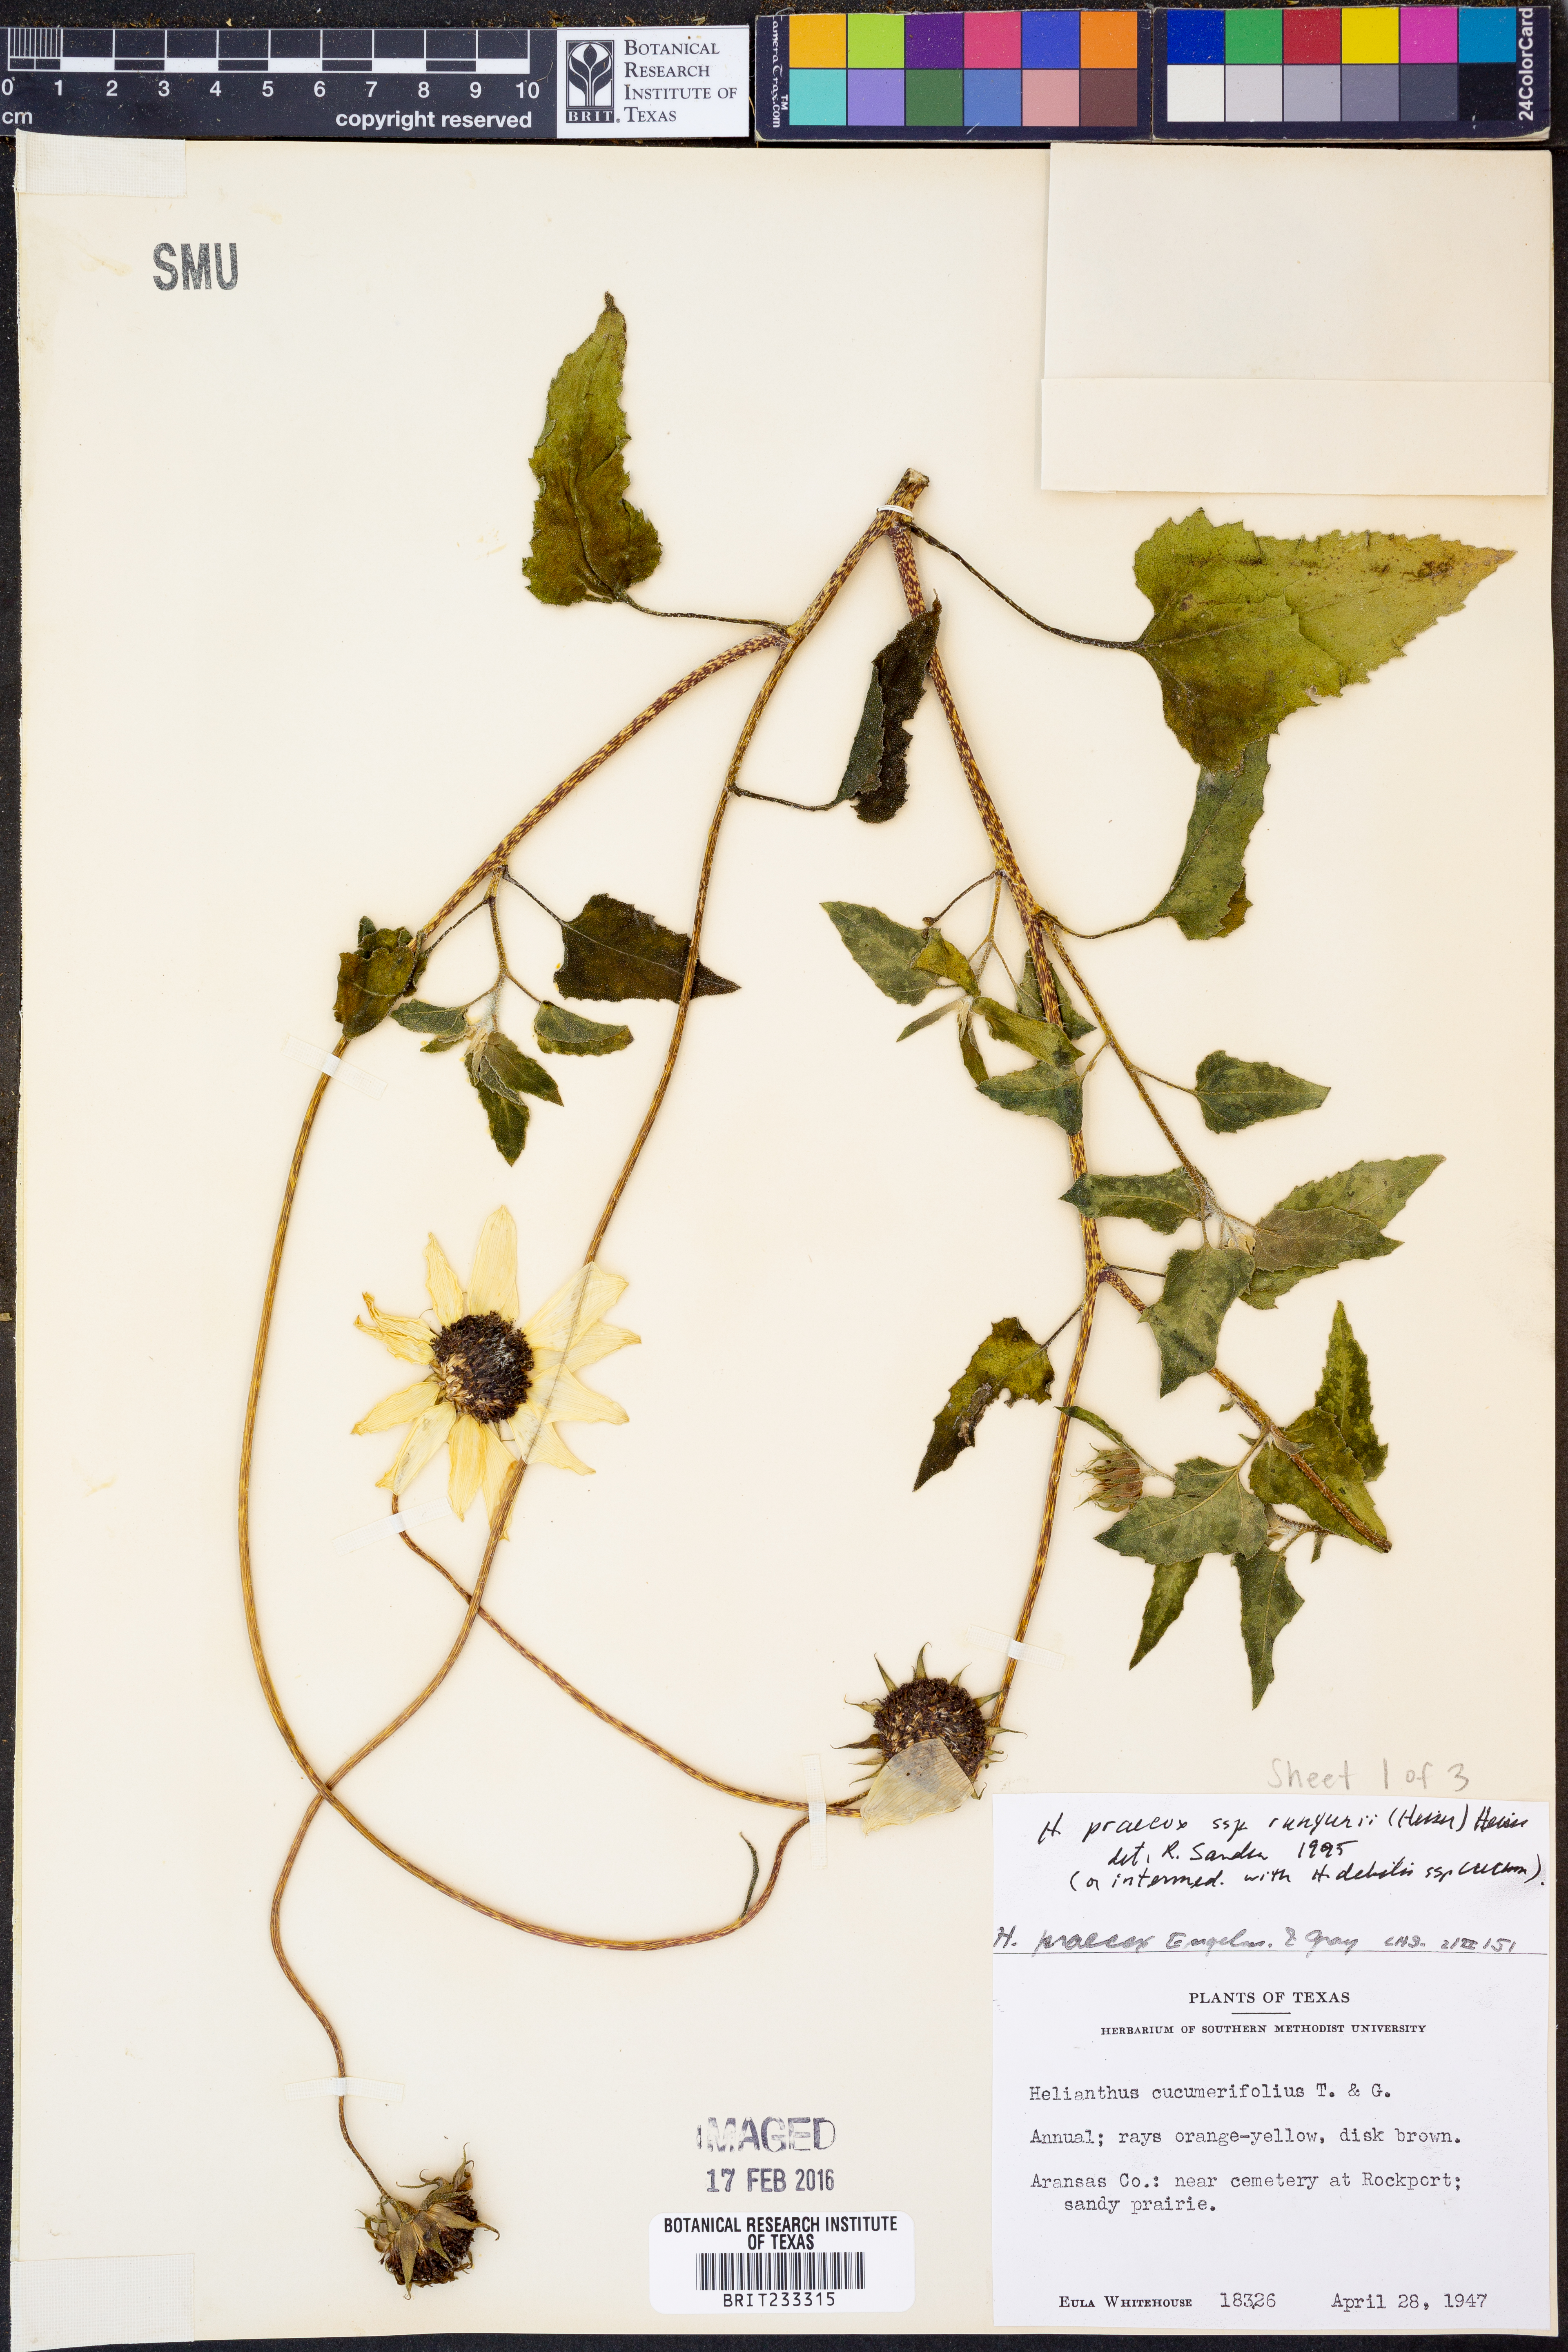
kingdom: Plantae
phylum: Tracheophyta
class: Magnoliopsida
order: Asterales
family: Asteraceae
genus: Helianthus
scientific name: Helianthus praecox
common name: Texas sunflower
